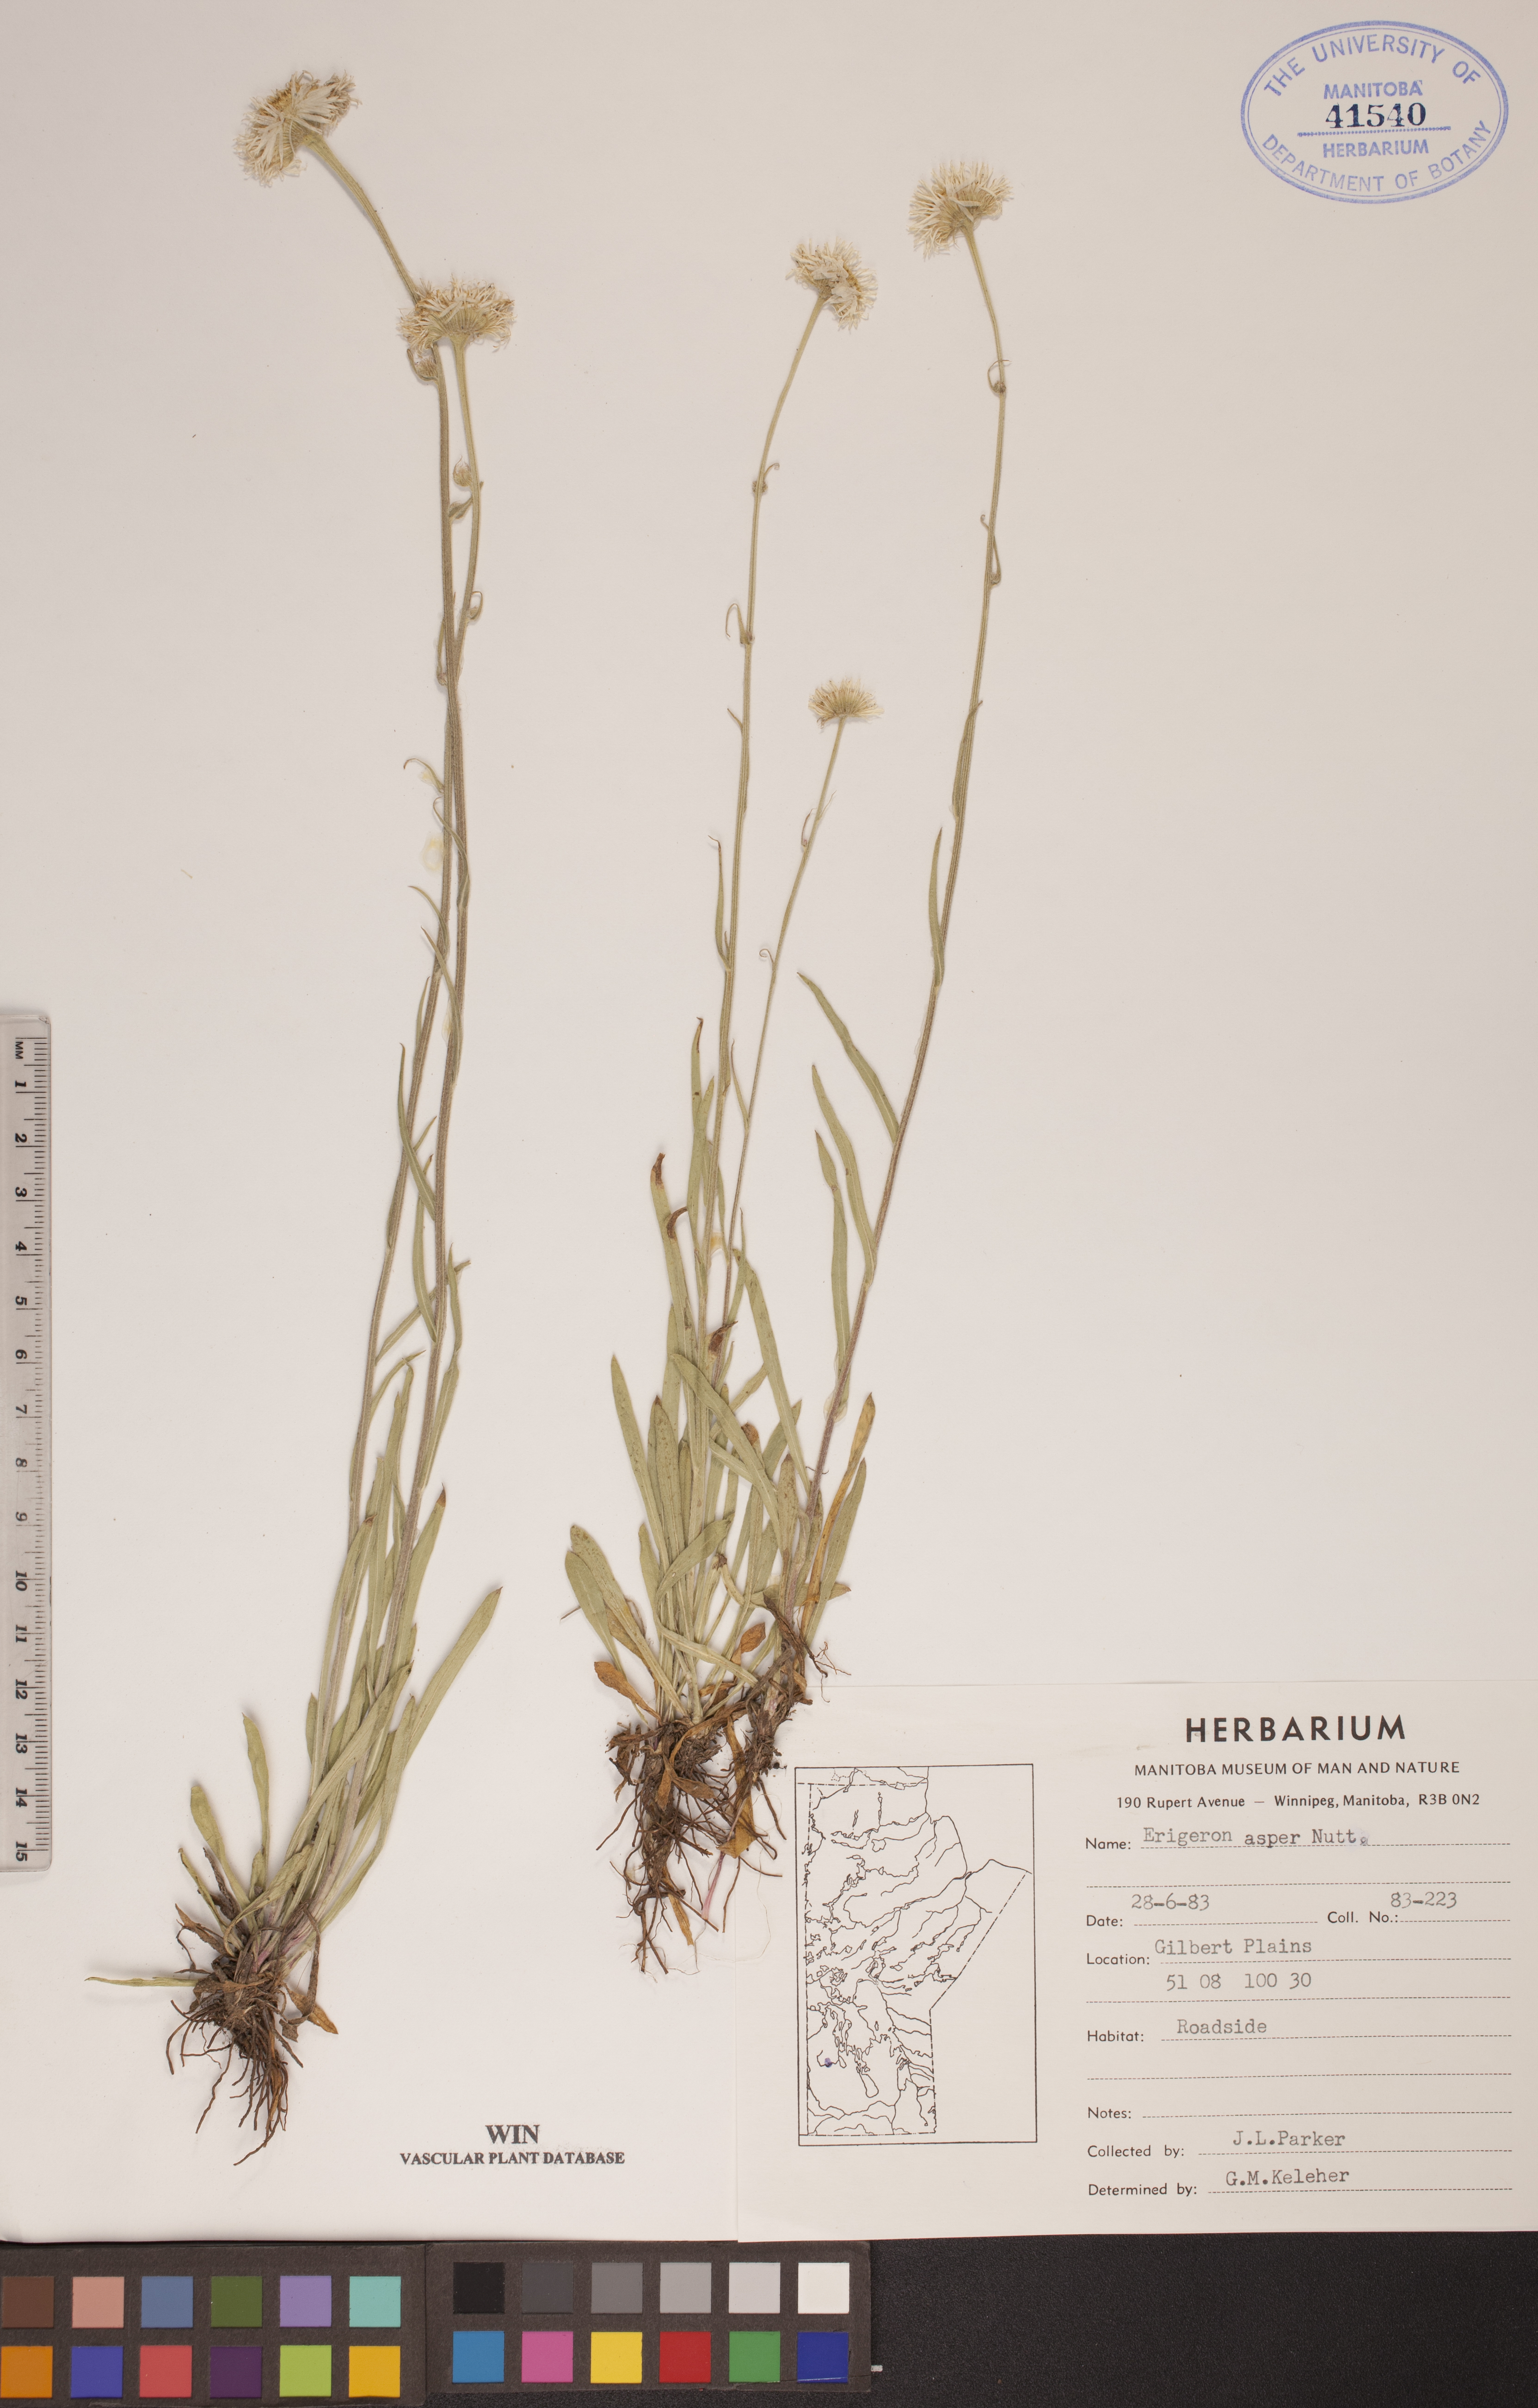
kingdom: Plantae
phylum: Tracheophyta
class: Magnoliopsida
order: Asterales
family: Asteraceae
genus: Erigeron
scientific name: Erigeron glabellus
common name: Smooth fleabane
